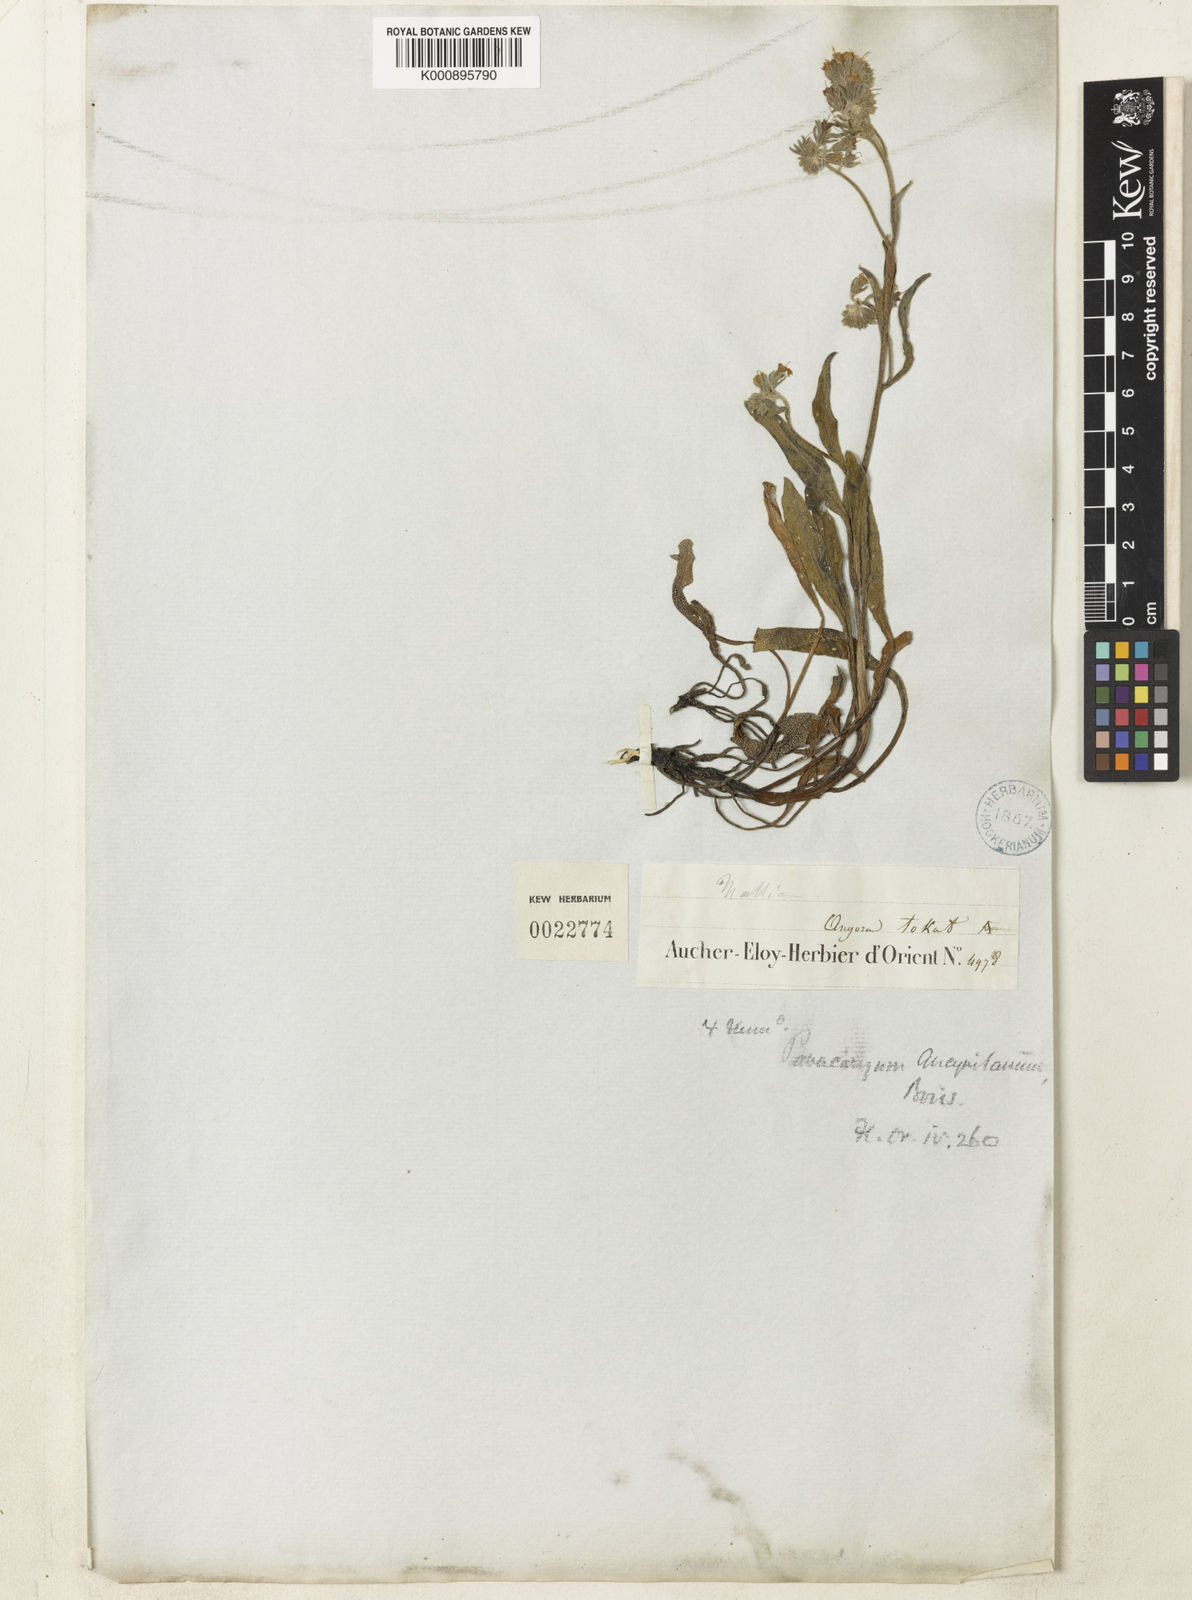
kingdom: Plantae
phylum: Tracheophyta
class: Magnoliopsida
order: Boraginales
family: Boraginaceae
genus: Paracaryum
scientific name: Paracaryum leptophyllum
